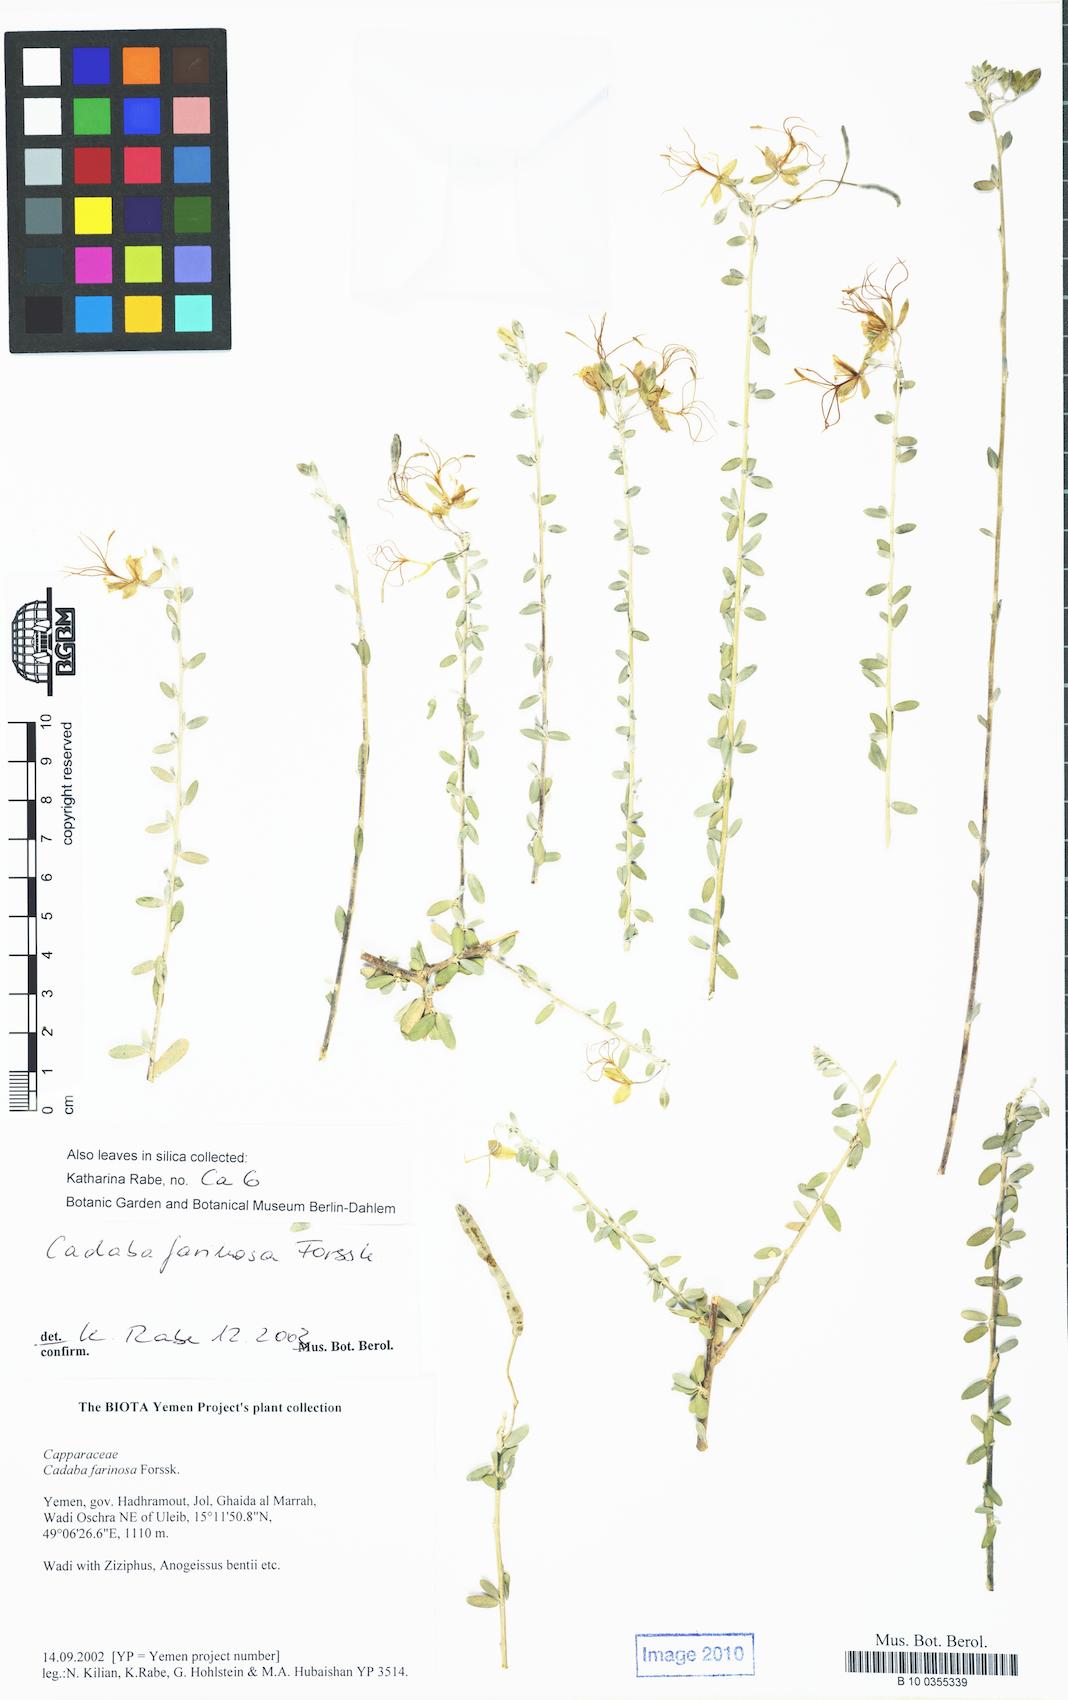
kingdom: Plantae
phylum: Tracheophyta
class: Magnoliopsida
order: Brassicales
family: Capparaceae
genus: Cadaba
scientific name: Cadaba farinosa
